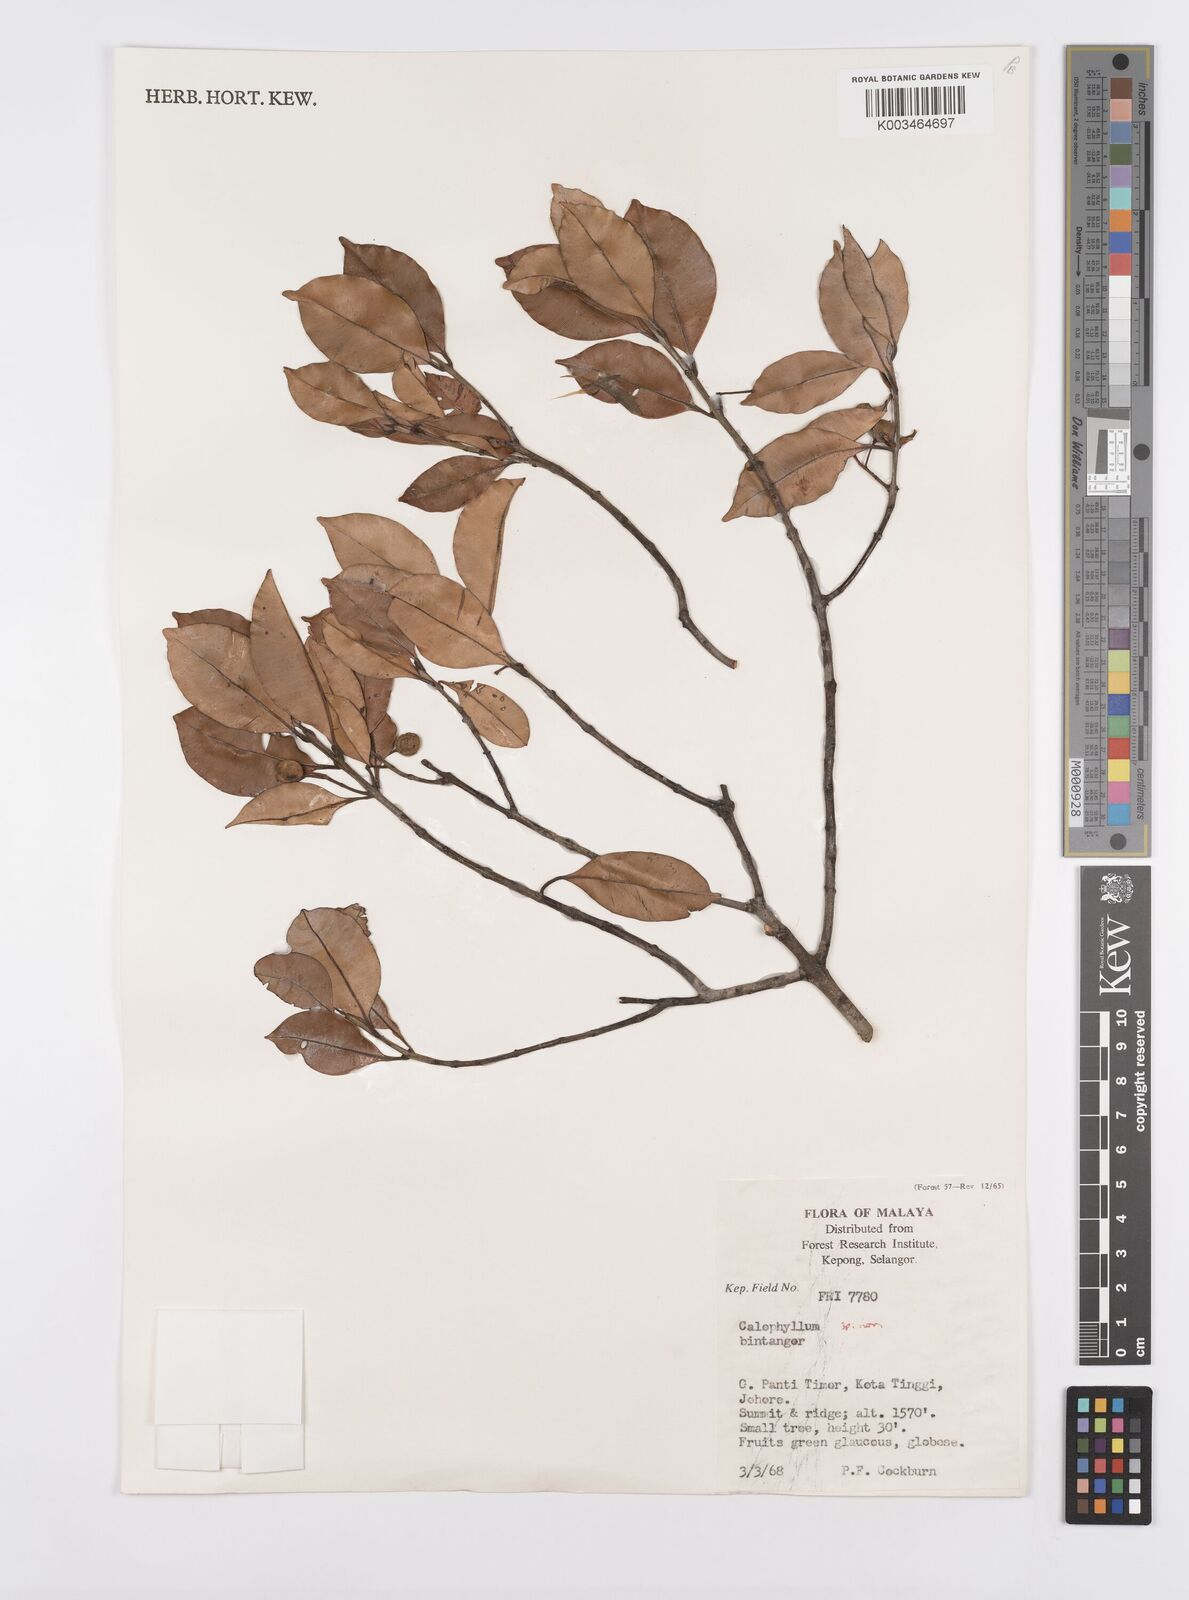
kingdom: Plantae
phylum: Tracheophyta
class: Magnoliopsida
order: Malpighiales
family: Calophyllaceae
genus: Calophyllum
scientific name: Calophyllum
